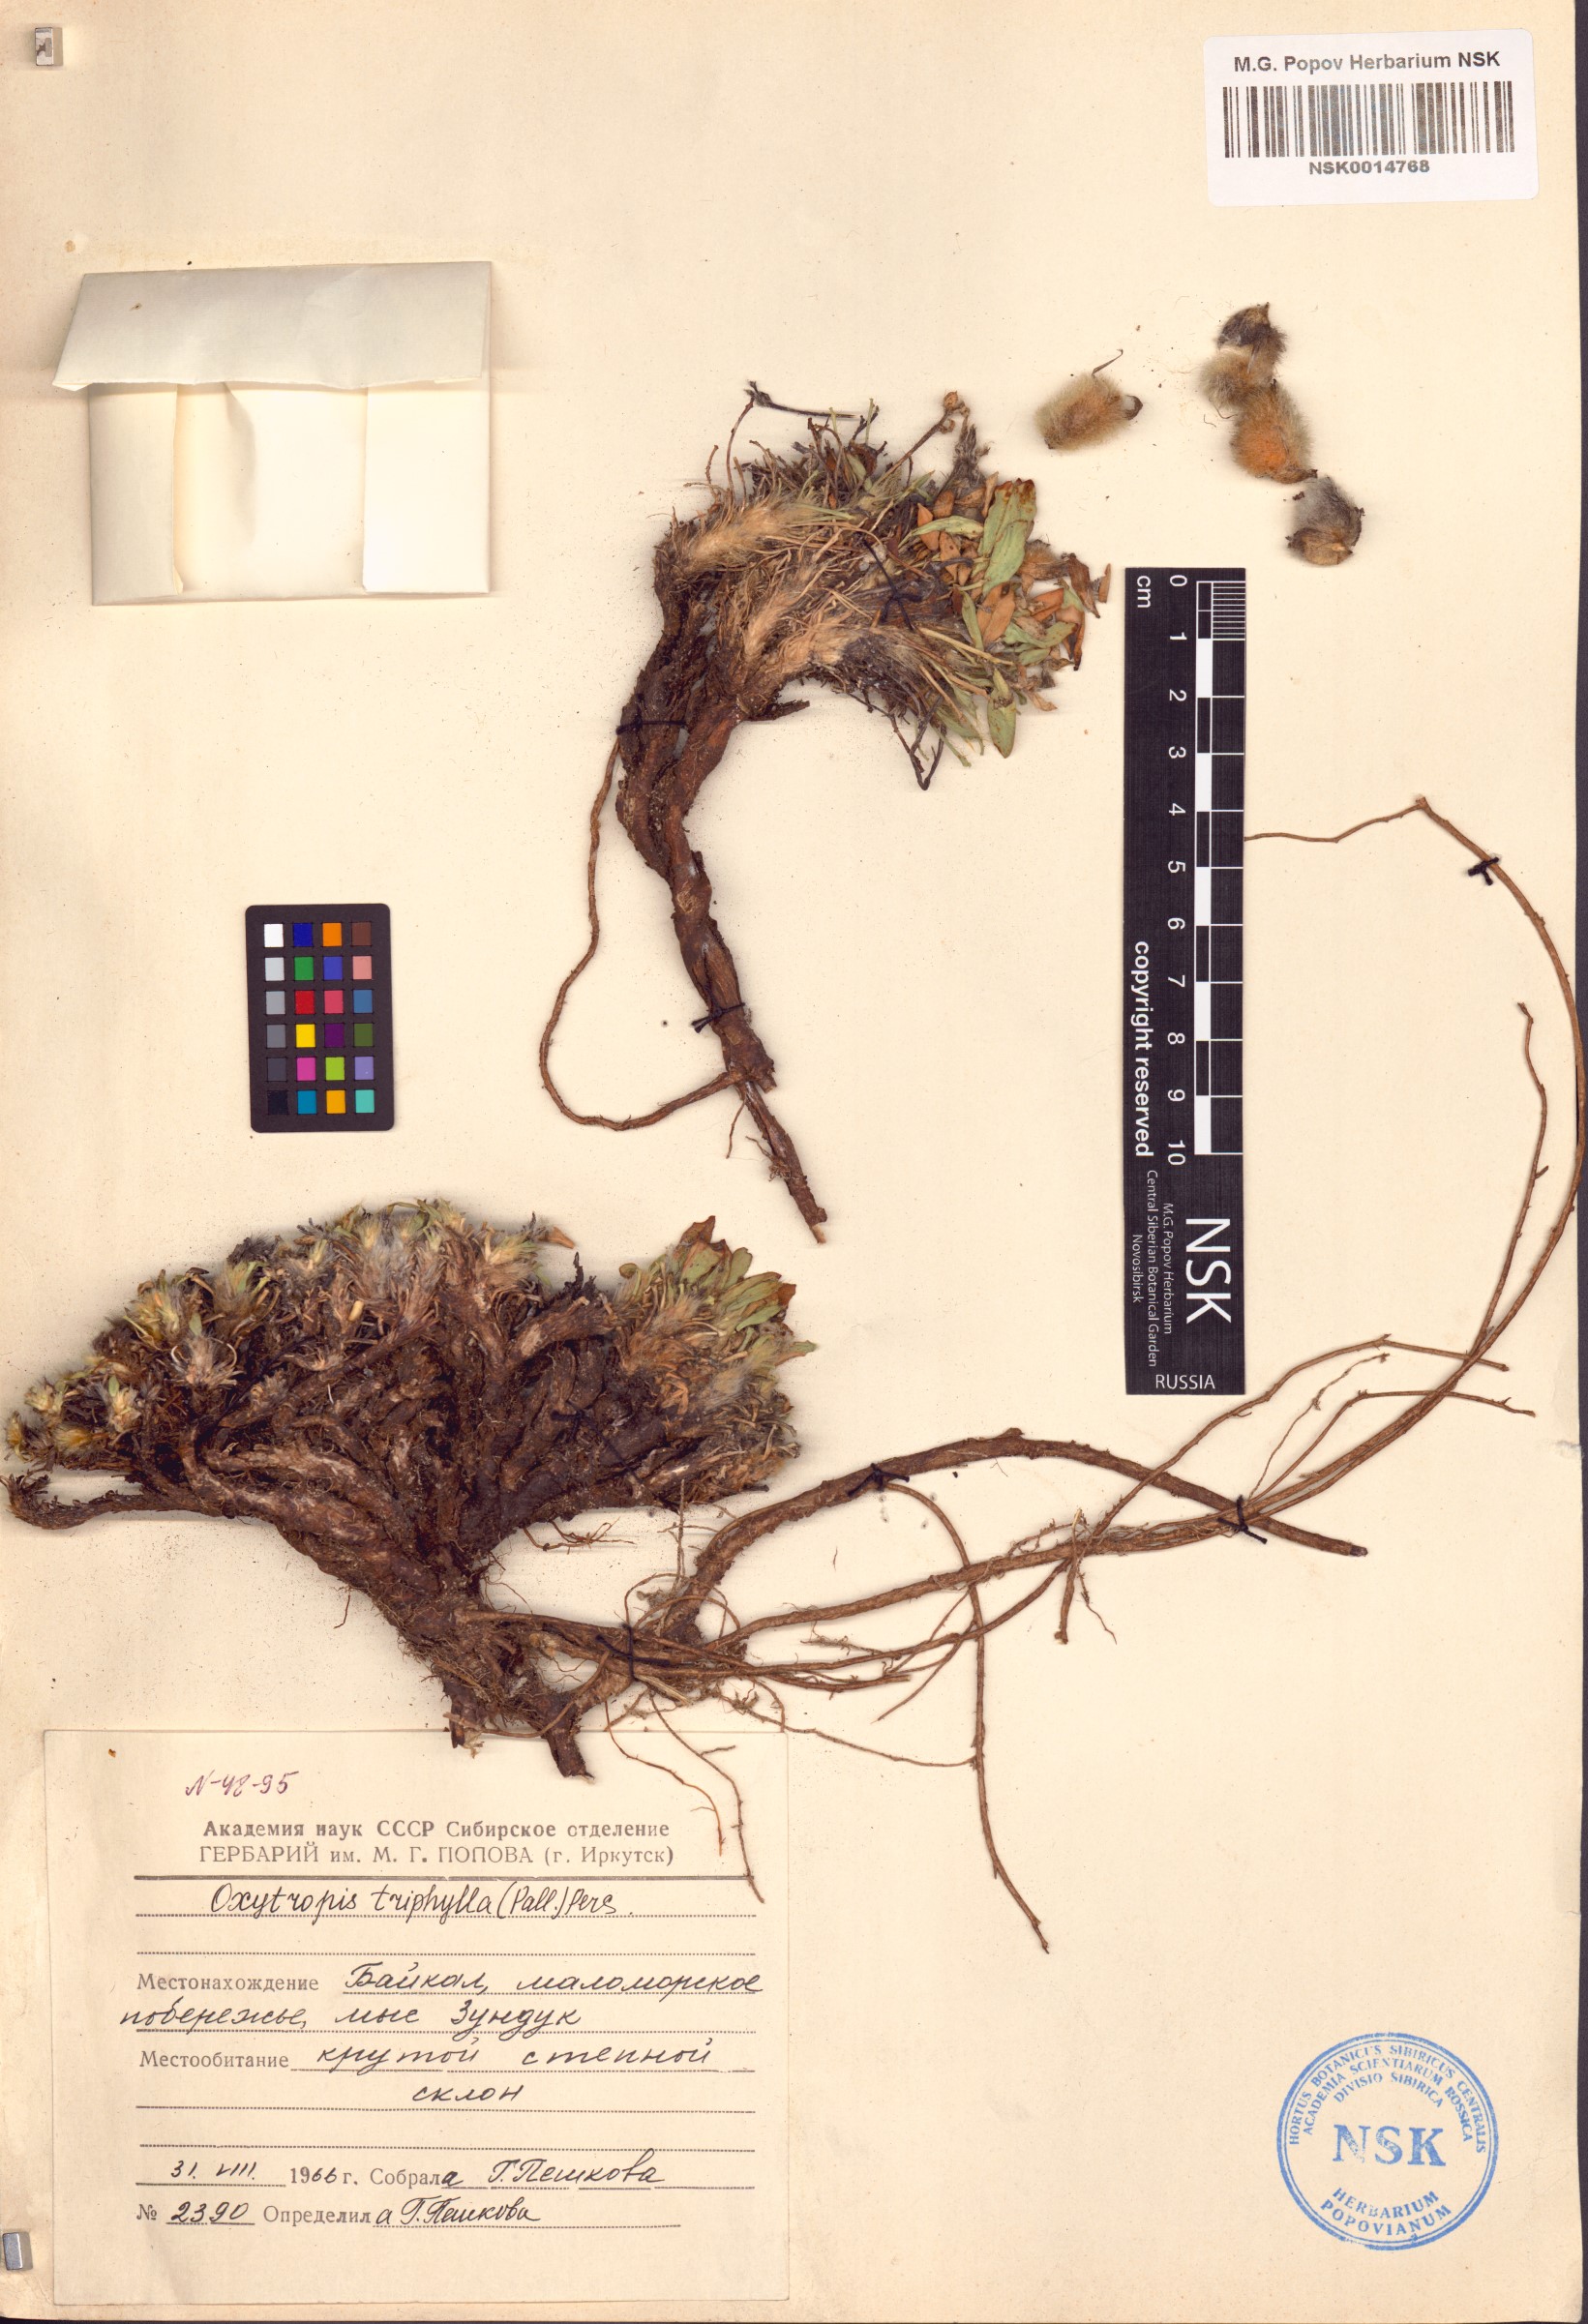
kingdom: Plantae
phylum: Tracheophyta
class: Magnoliopsida
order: Fabales
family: Fabaceae
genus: Oxytropis
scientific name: Oxytropis triphylla
